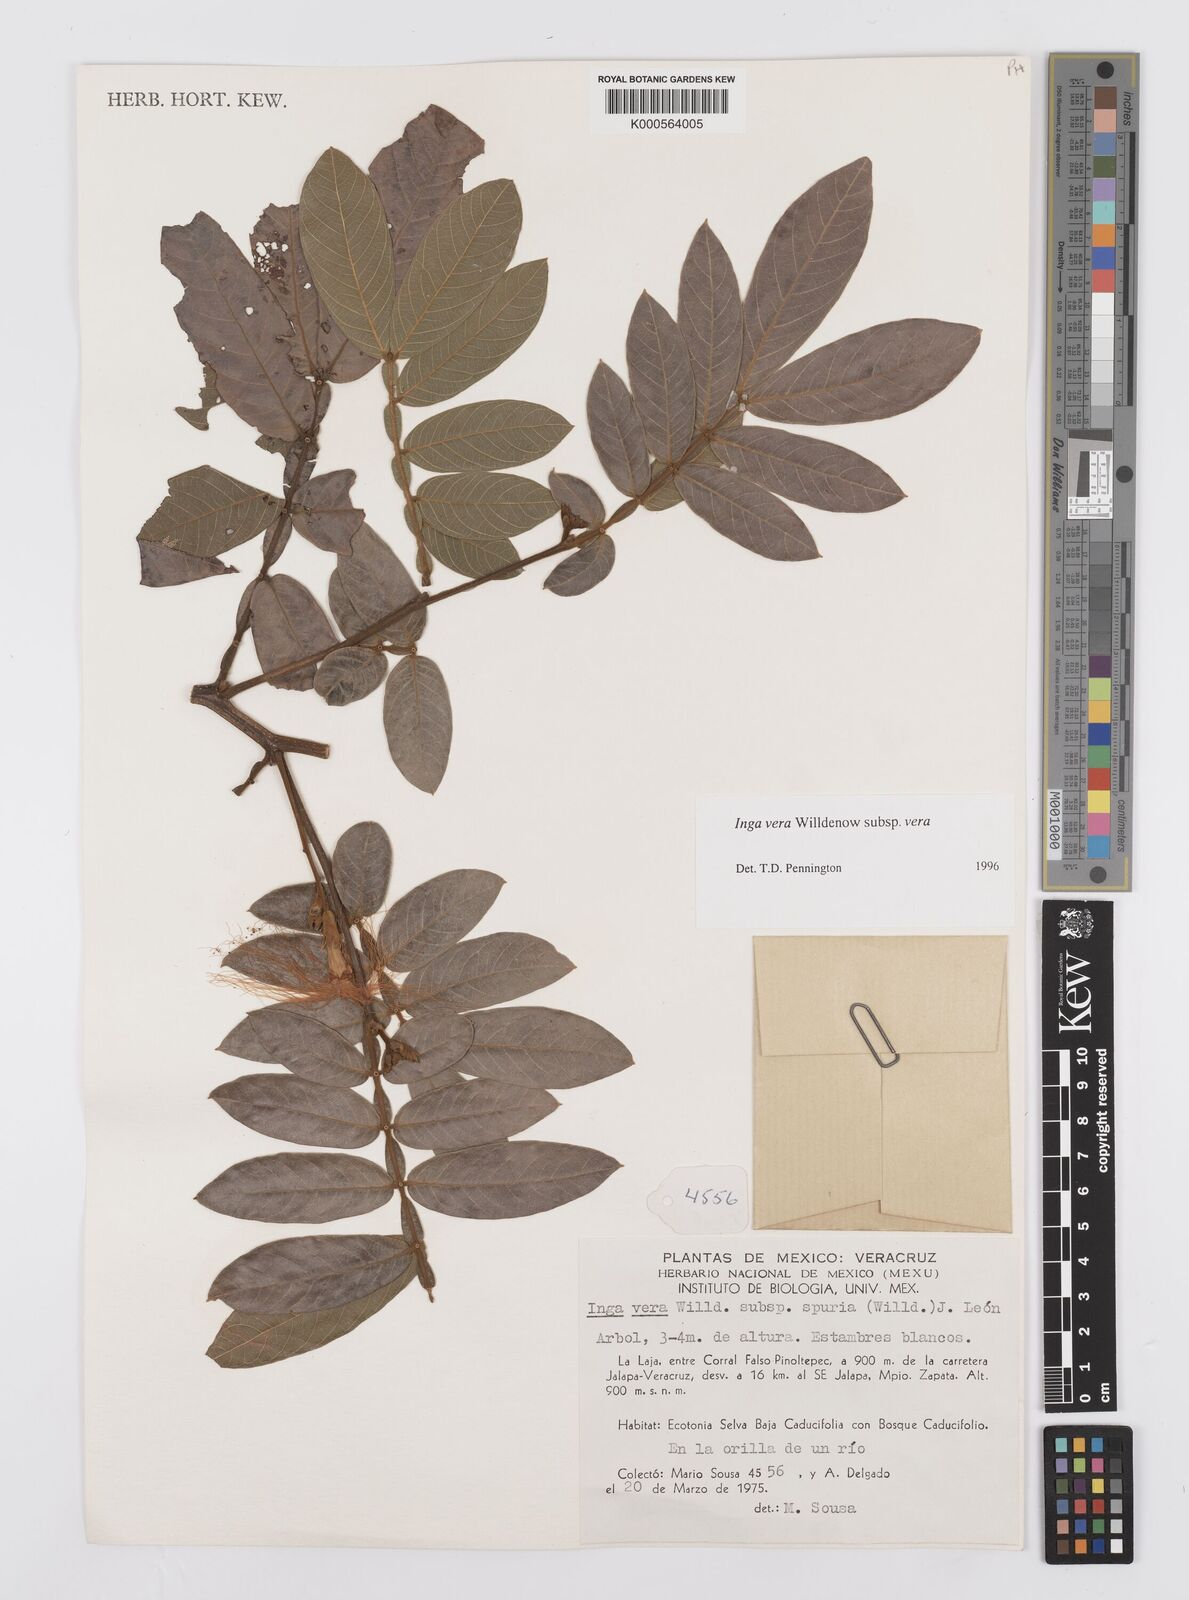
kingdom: Plantae
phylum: Tracheophyta
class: Magnoliopsida
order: Fabales
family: Fabaceae
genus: Inga
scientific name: Inga vera
